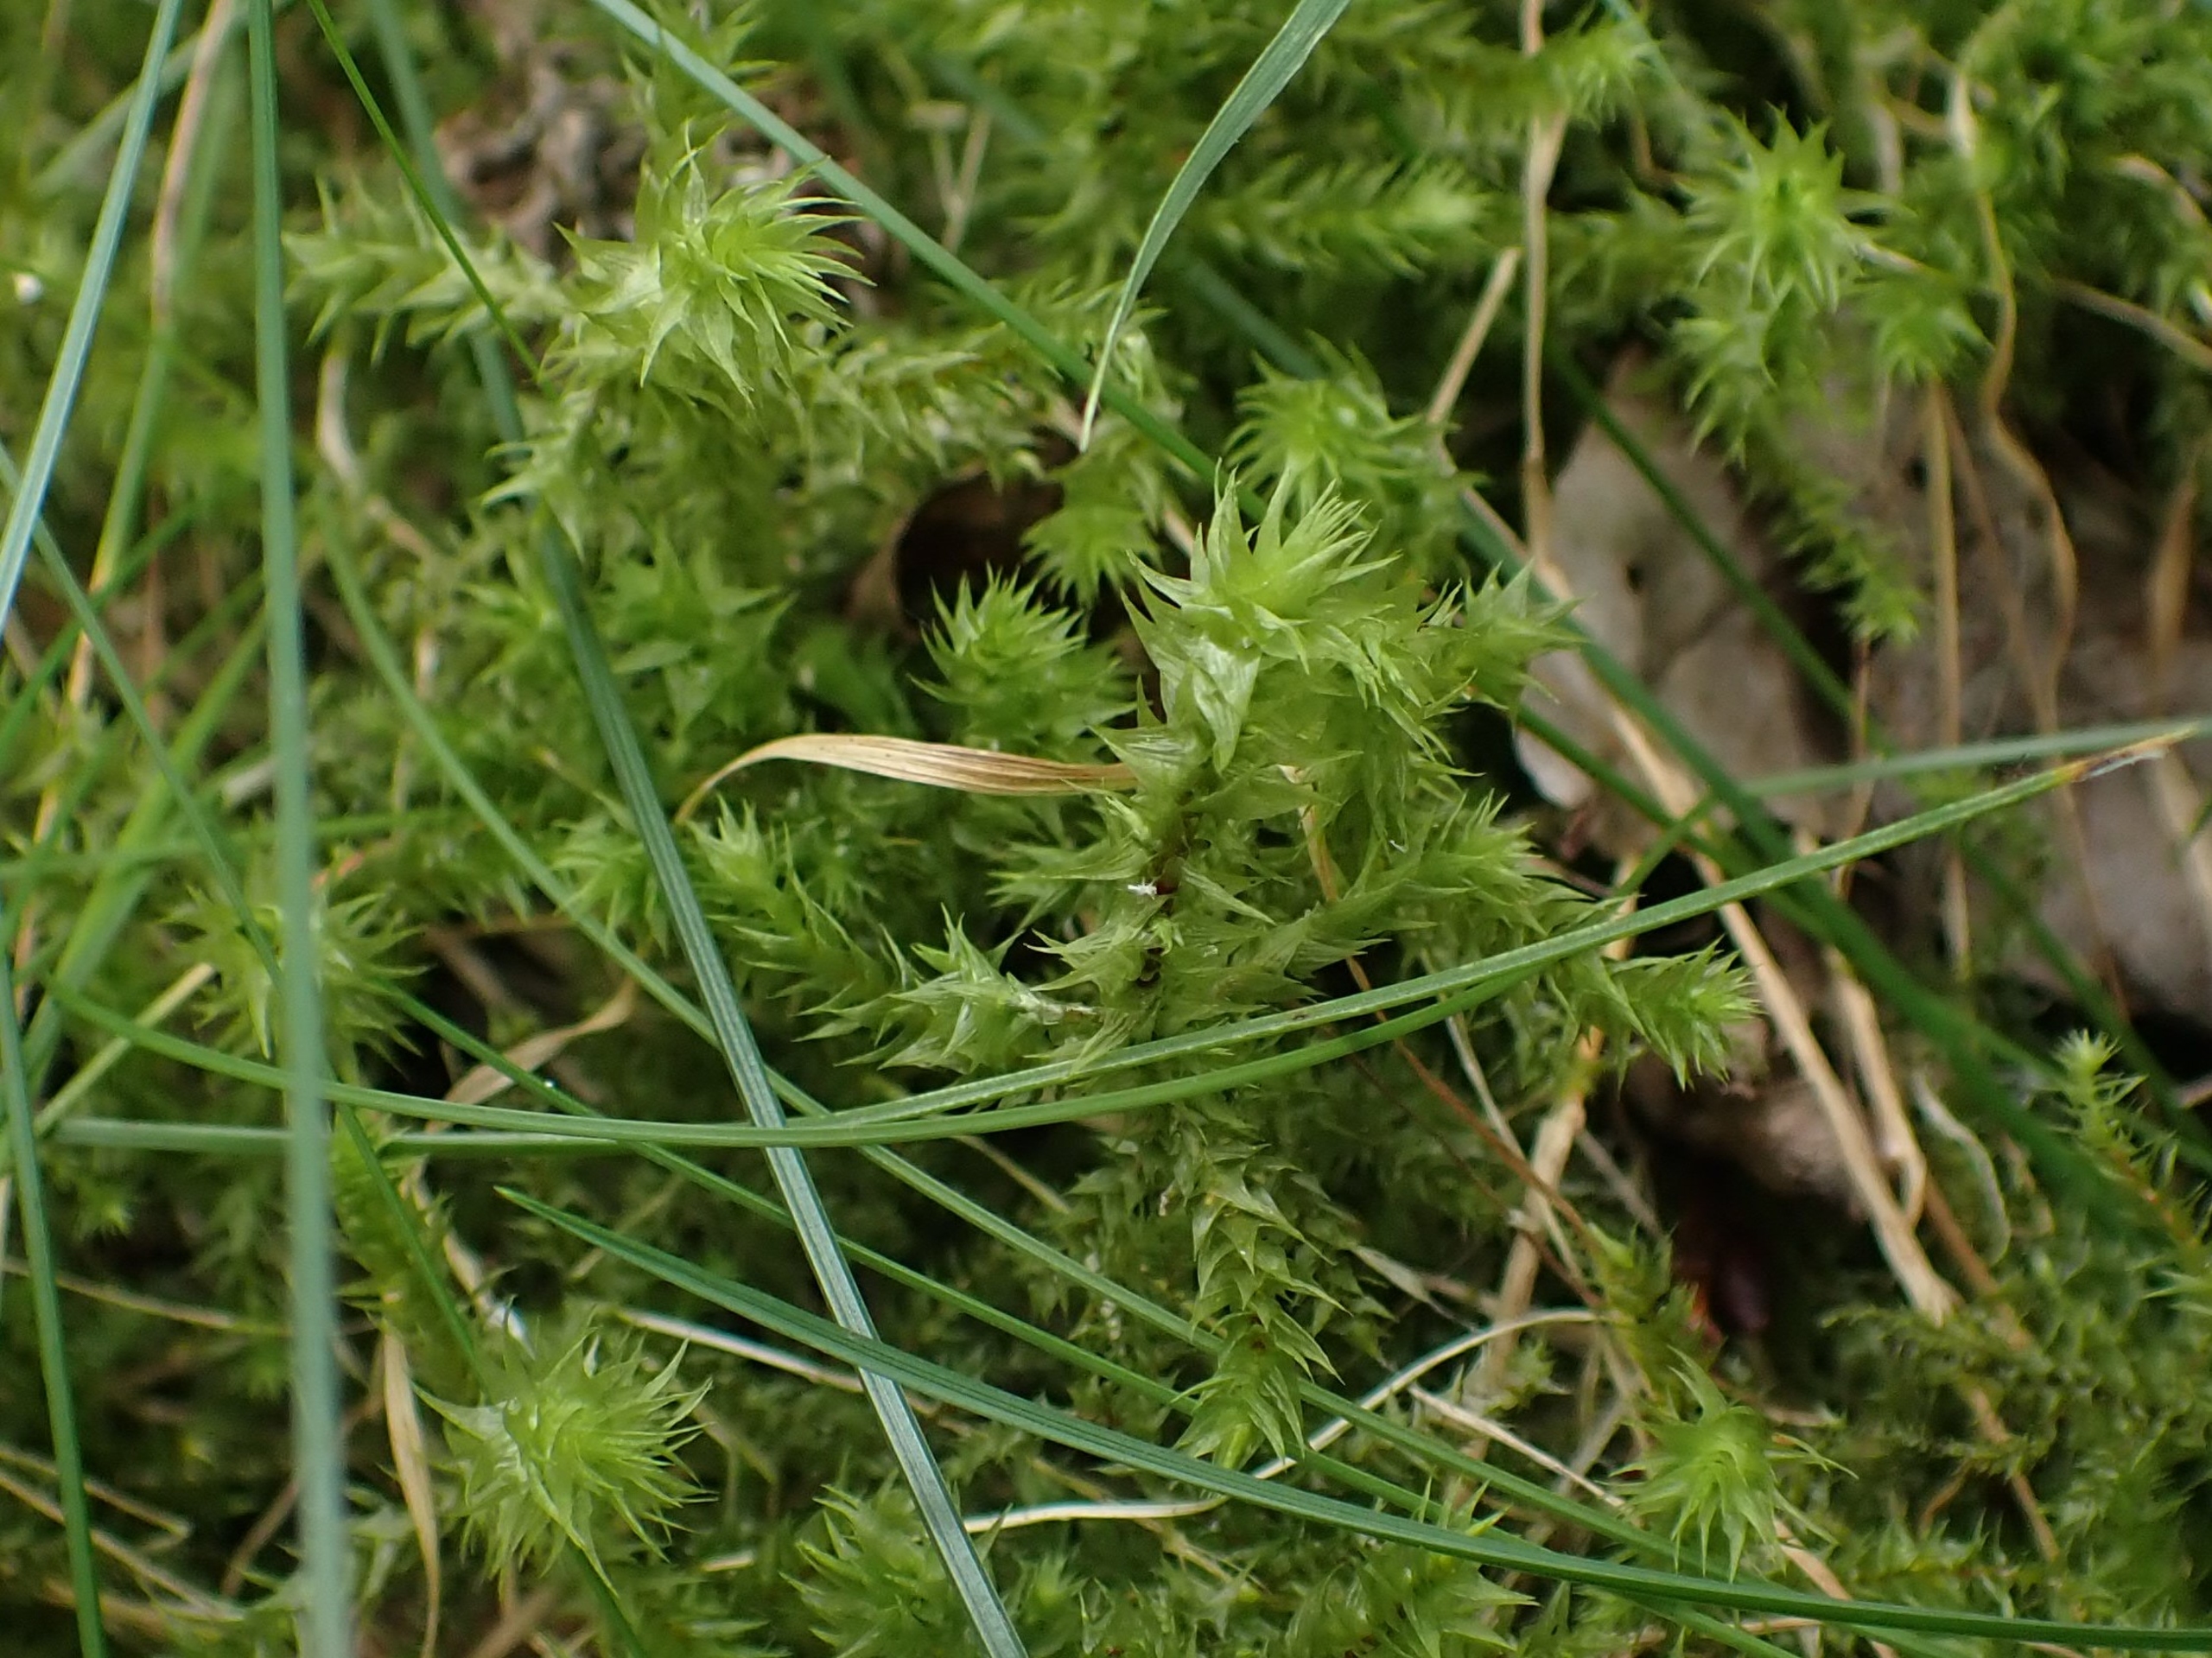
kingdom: Plantae
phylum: Bryophyta
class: Bryopsida
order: Hypnales
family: Hylocomiaceae
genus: Hylocomiadelphus
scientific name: Hylocomiadelphus triquetrus
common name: Stor kransemos
